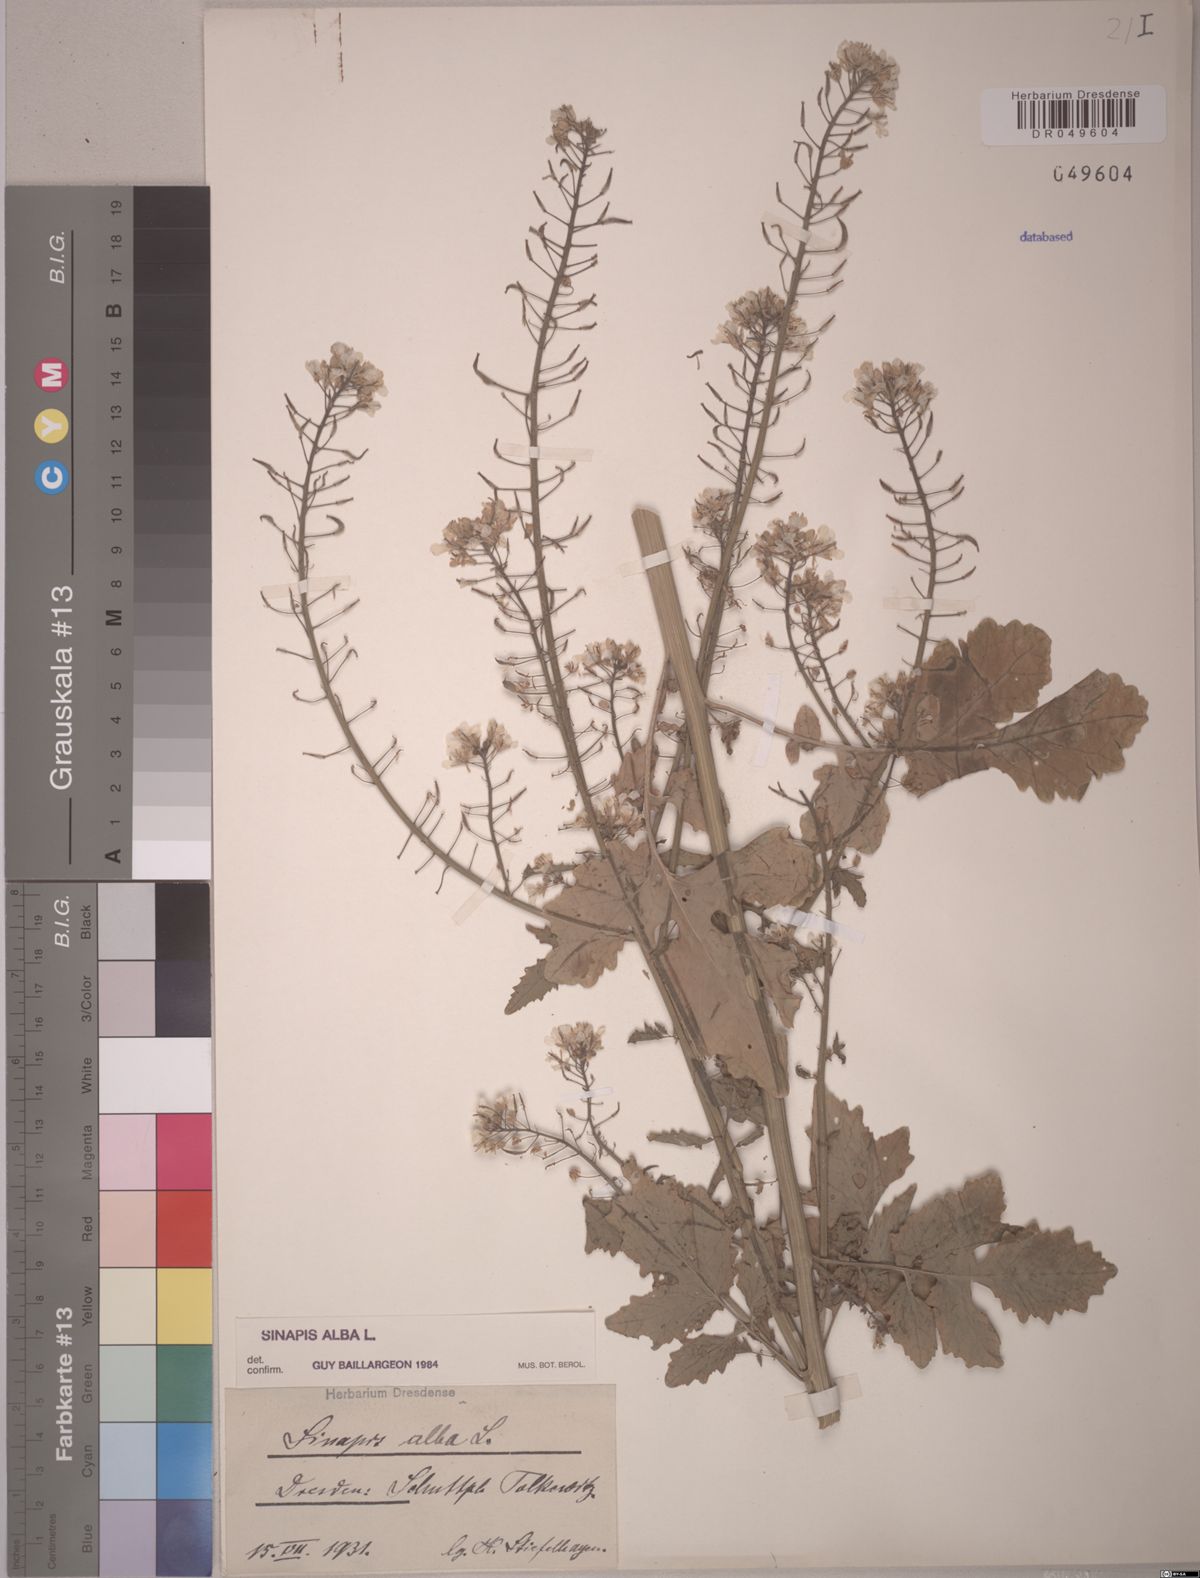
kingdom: Plantae
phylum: Tracheophyta
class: Magnoliopsida
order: Brassicales
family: Brassicaceae
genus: Sinapis
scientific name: Sinapis alba
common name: White mustard
